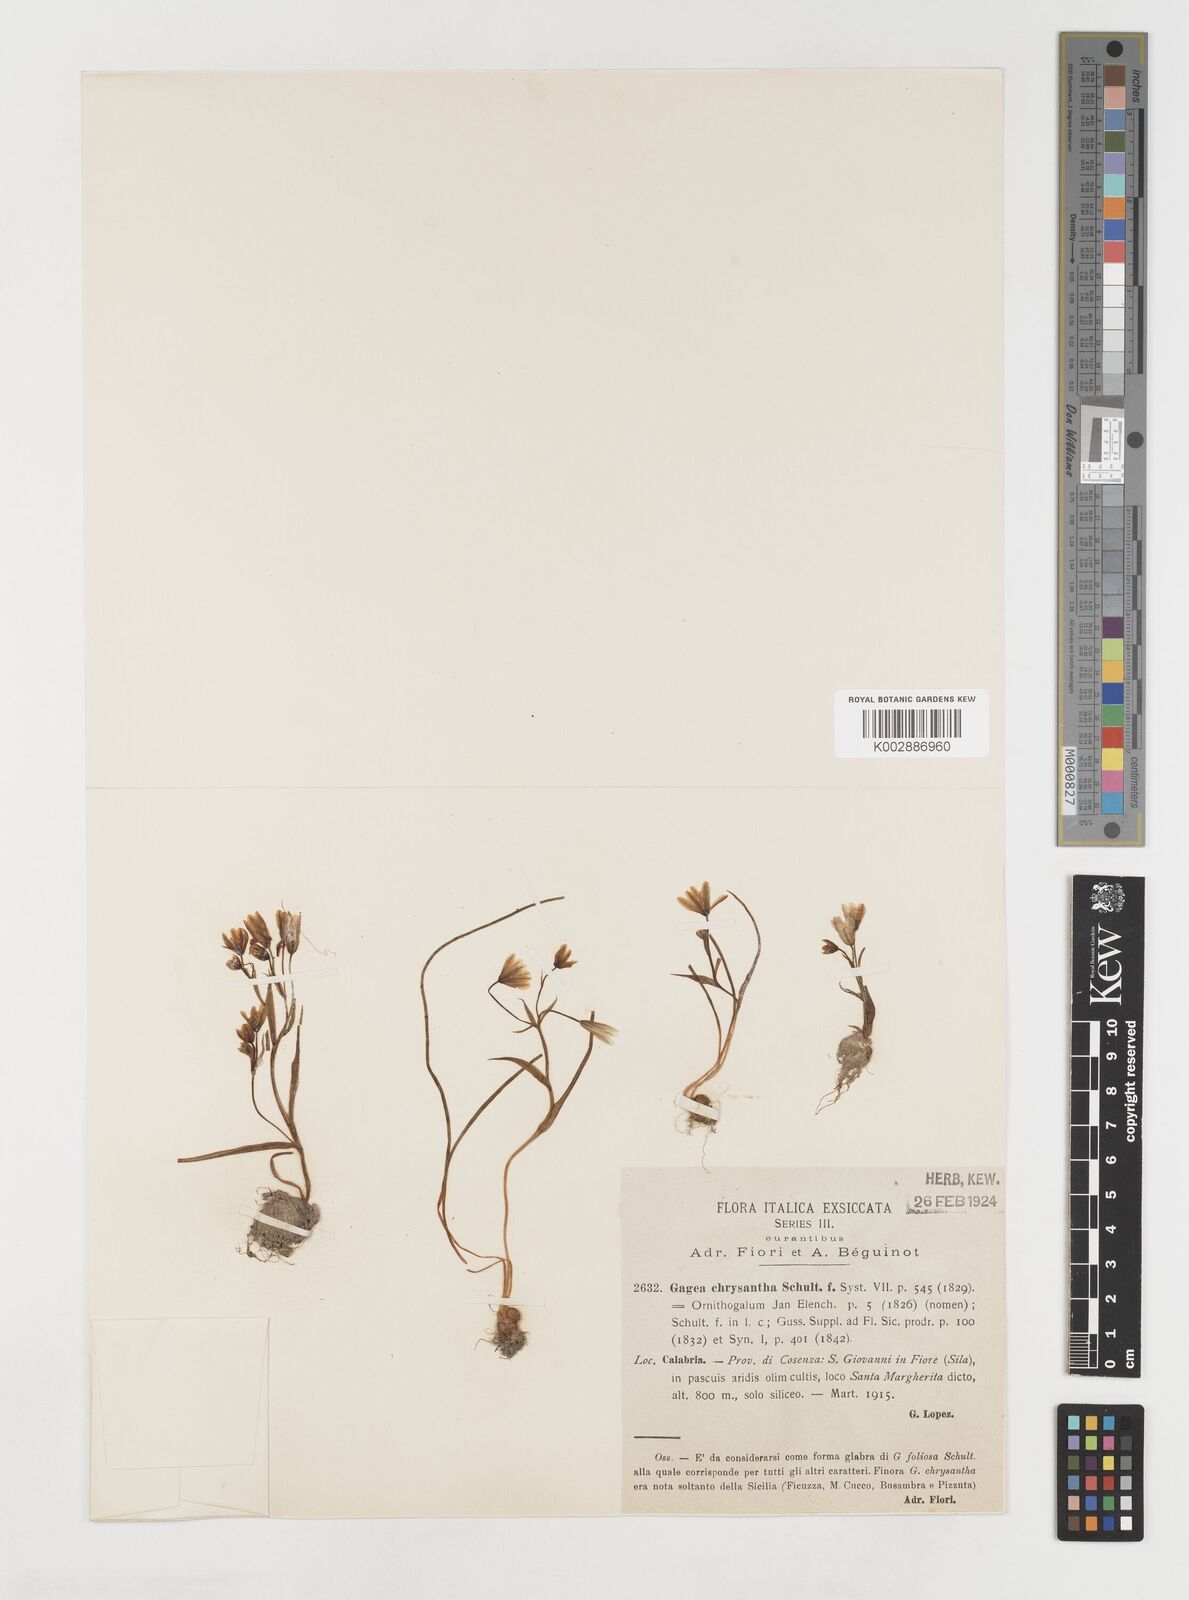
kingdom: Plantae
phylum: Tracheophyta
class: Liliopsida
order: Liliales
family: Liliaceae
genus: Gagea
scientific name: Gagea chrysantha
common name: Golden gagea
